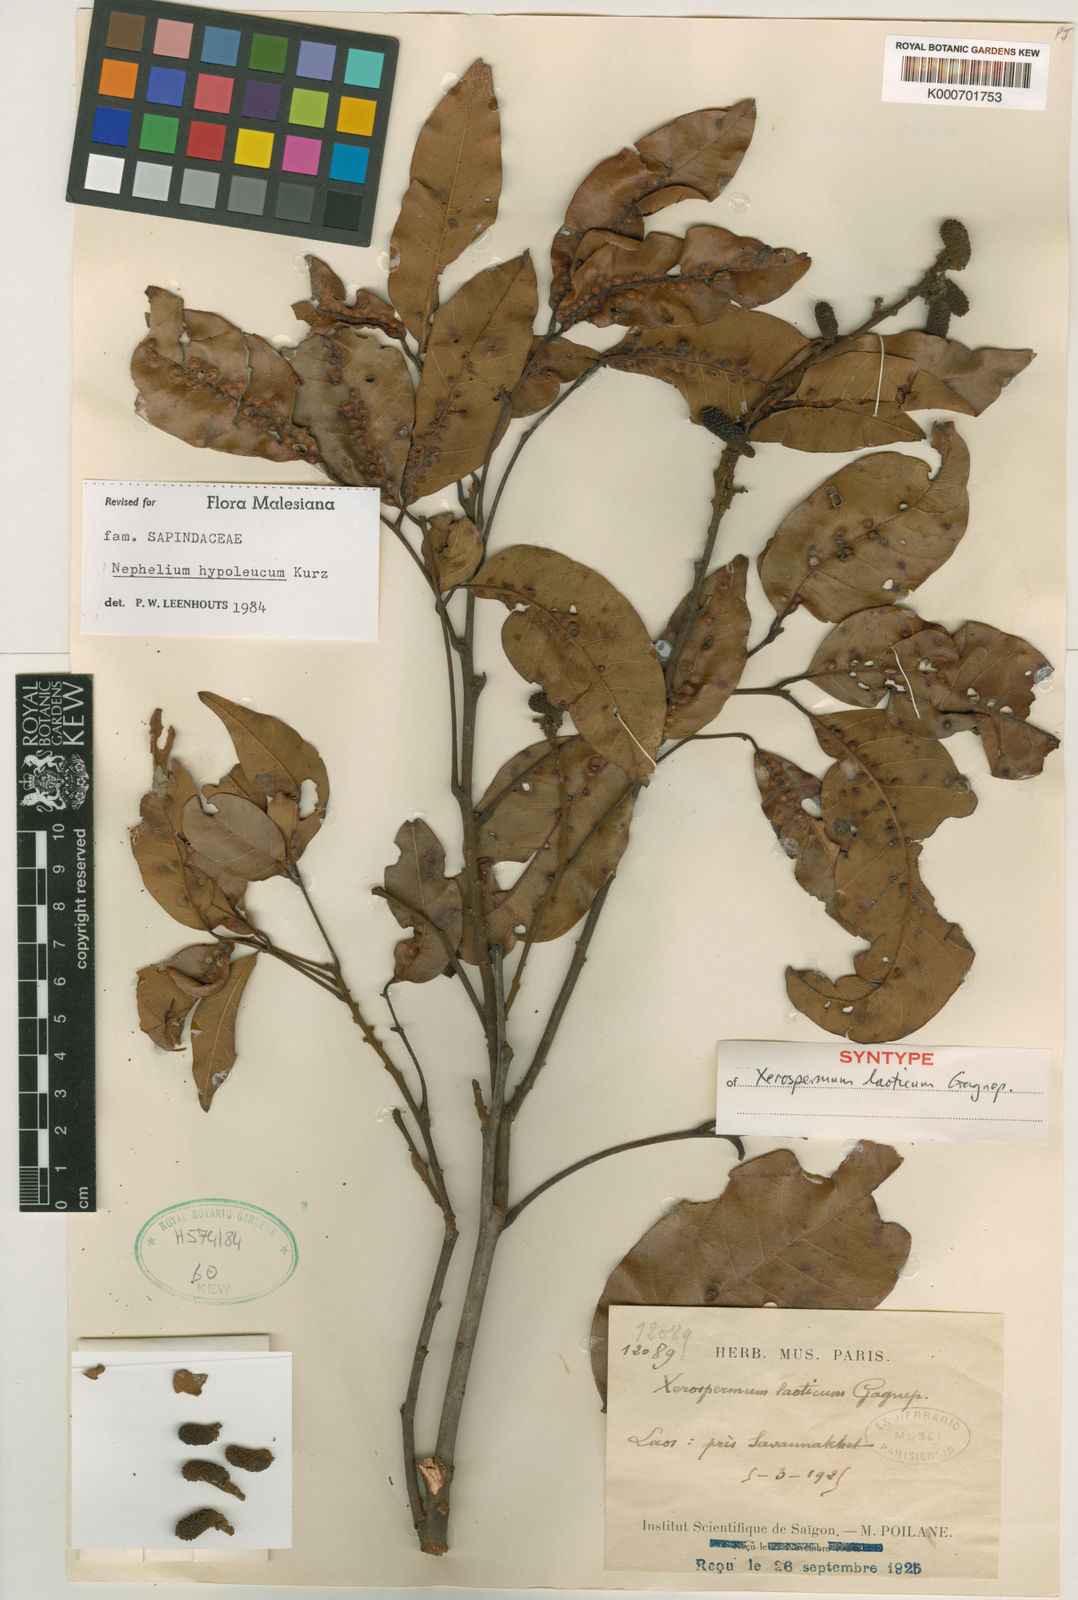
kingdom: Plantae
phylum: Tracheophyta
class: Magnoliopsida
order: Sapindales
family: Sapindaceae
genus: Nephelium
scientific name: Nephelium hypoleucum
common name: Korlan
